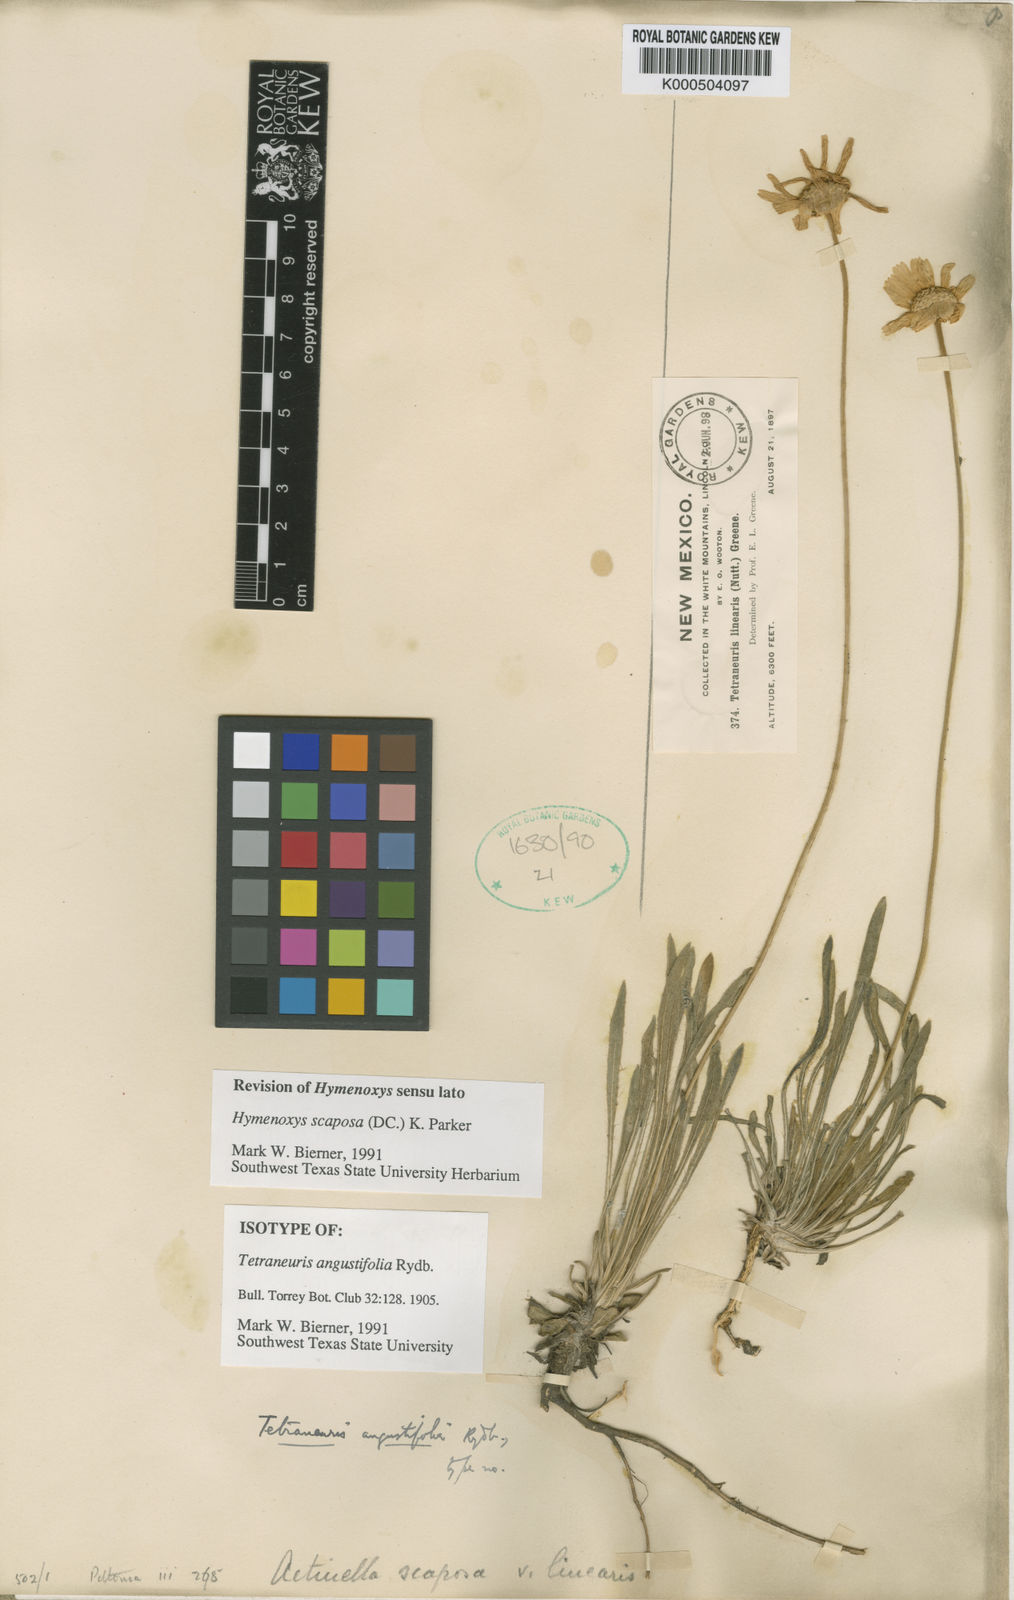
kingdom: Plantae
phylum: Tracheophyta
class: Magnoliopsida
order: Asterales
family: Asteraceae
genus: Tetraneuris
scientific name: Tetraneuris scaposa
